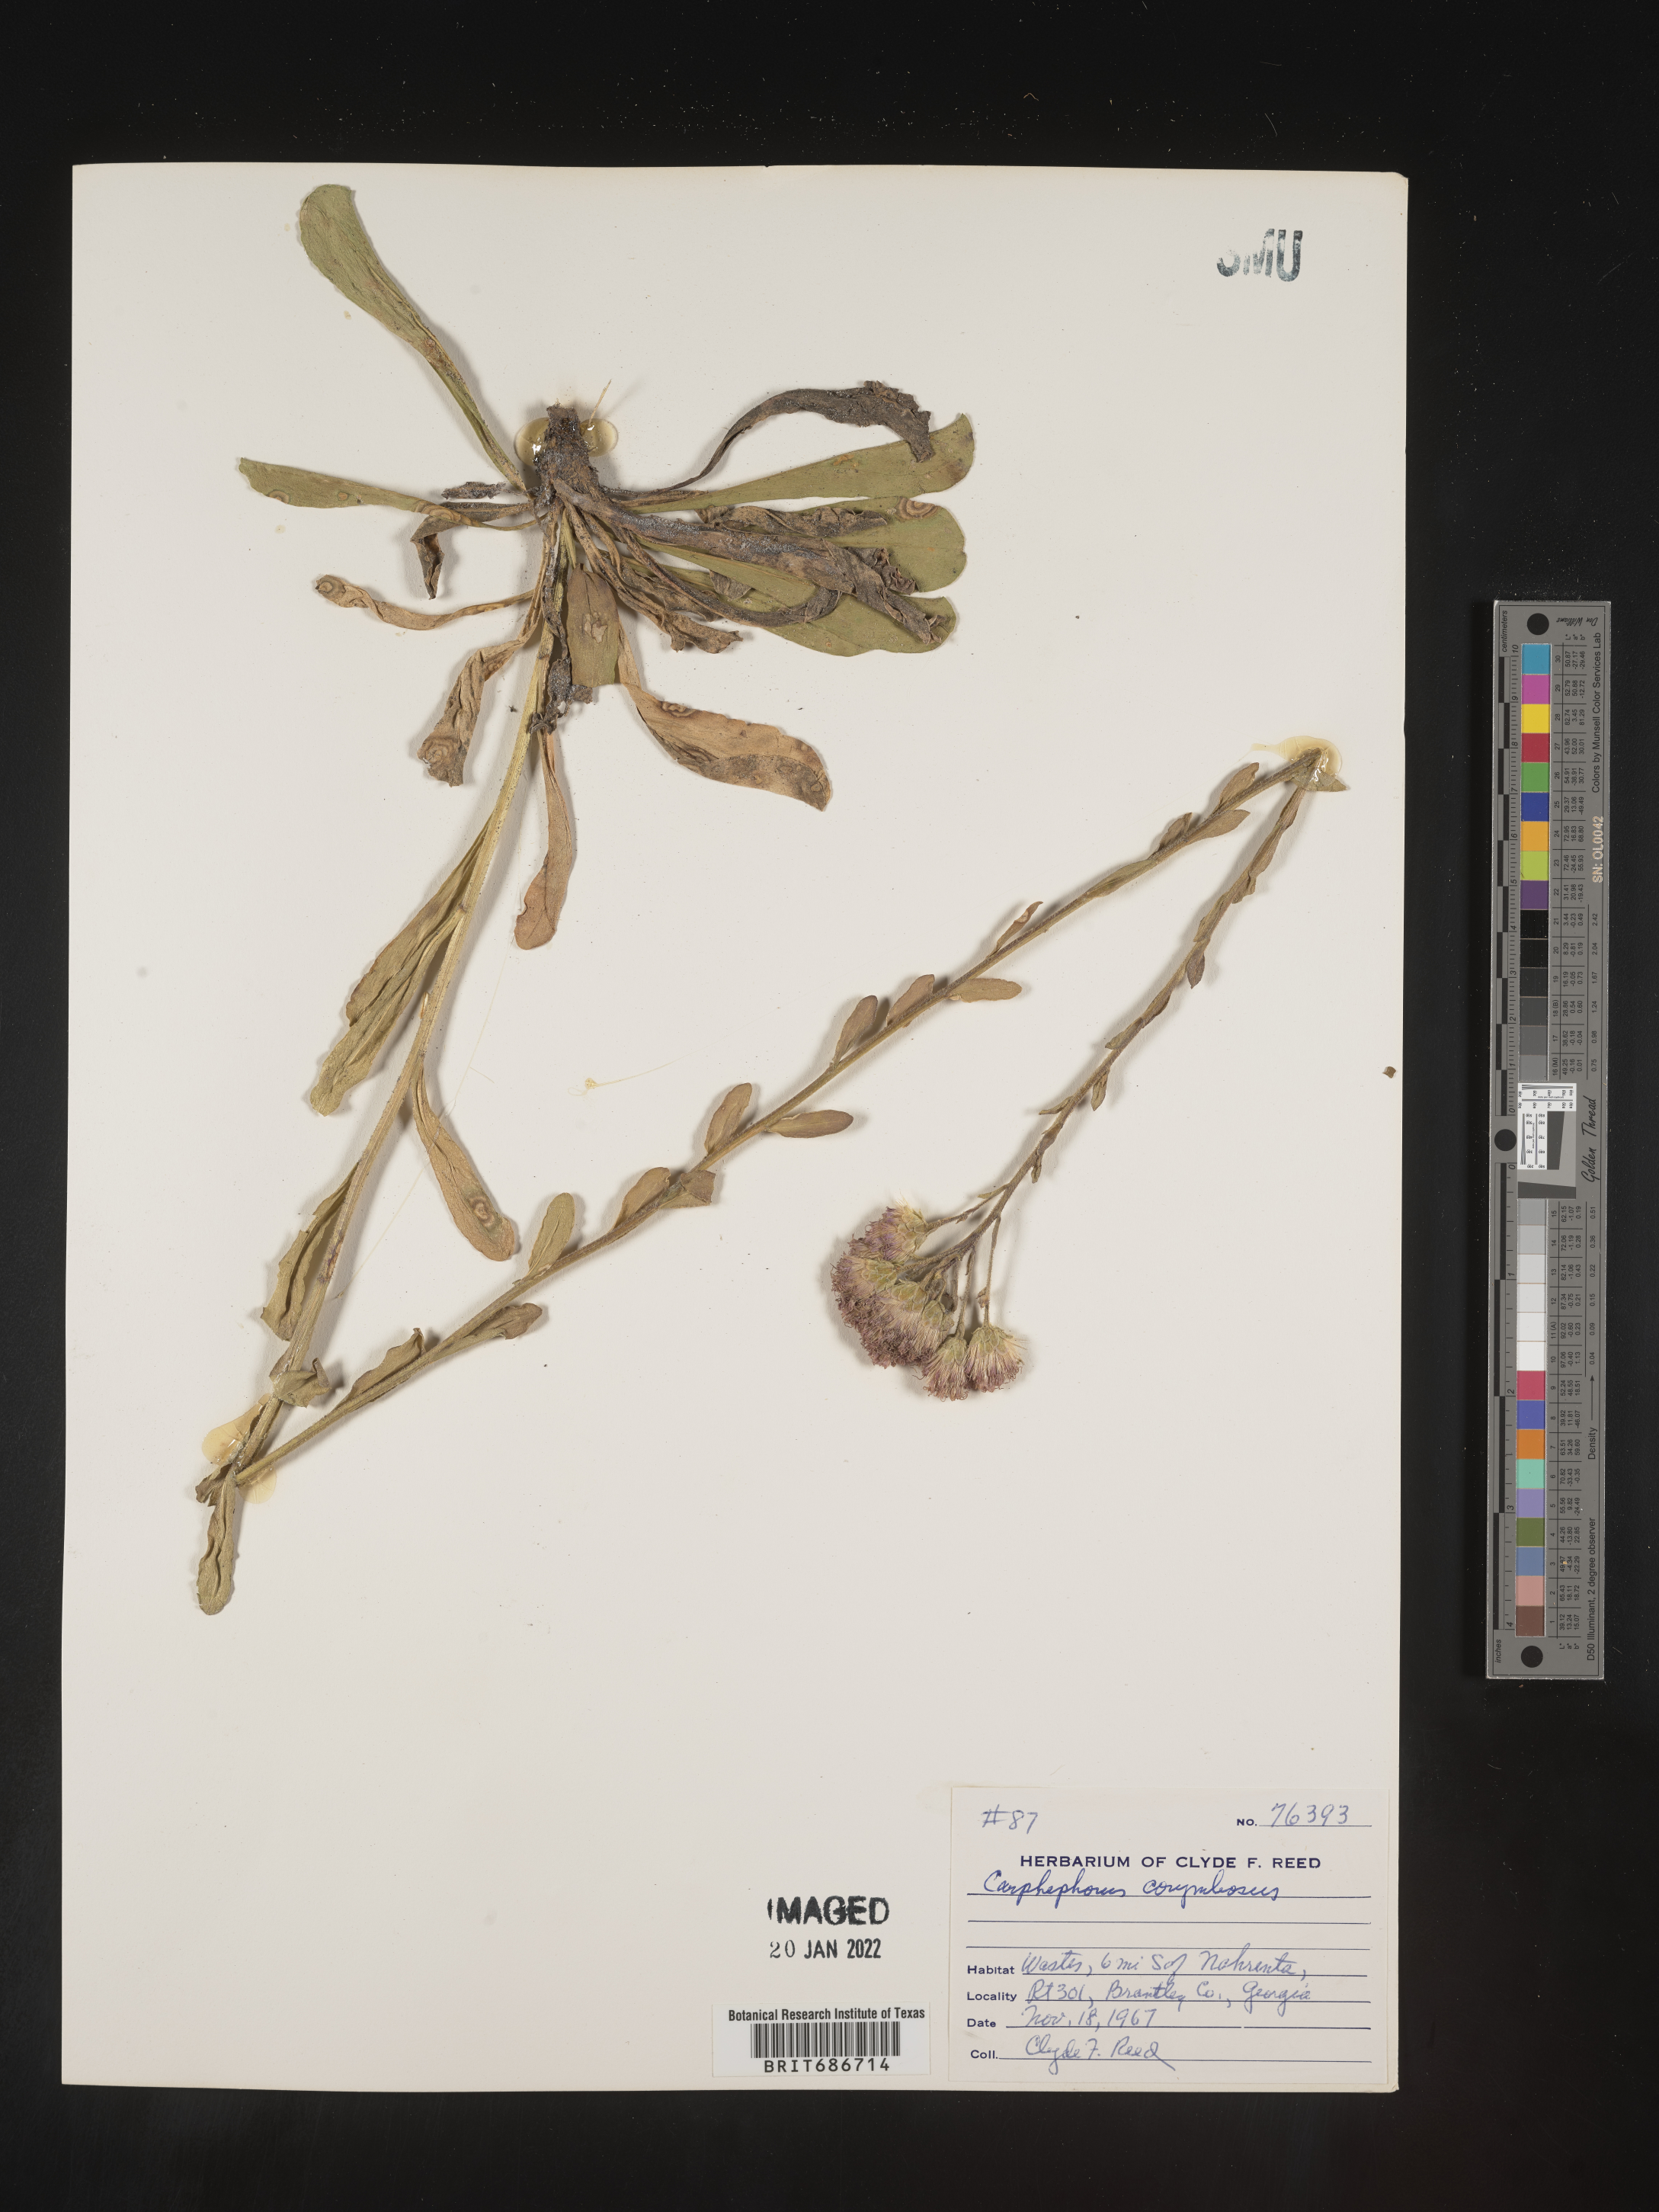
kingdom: Plantae
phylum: Tracheophyta
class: Magnoliopsida
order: Asterales
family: Asteraceae
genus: Carphephorus
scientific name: Carphephorus corymbosus
